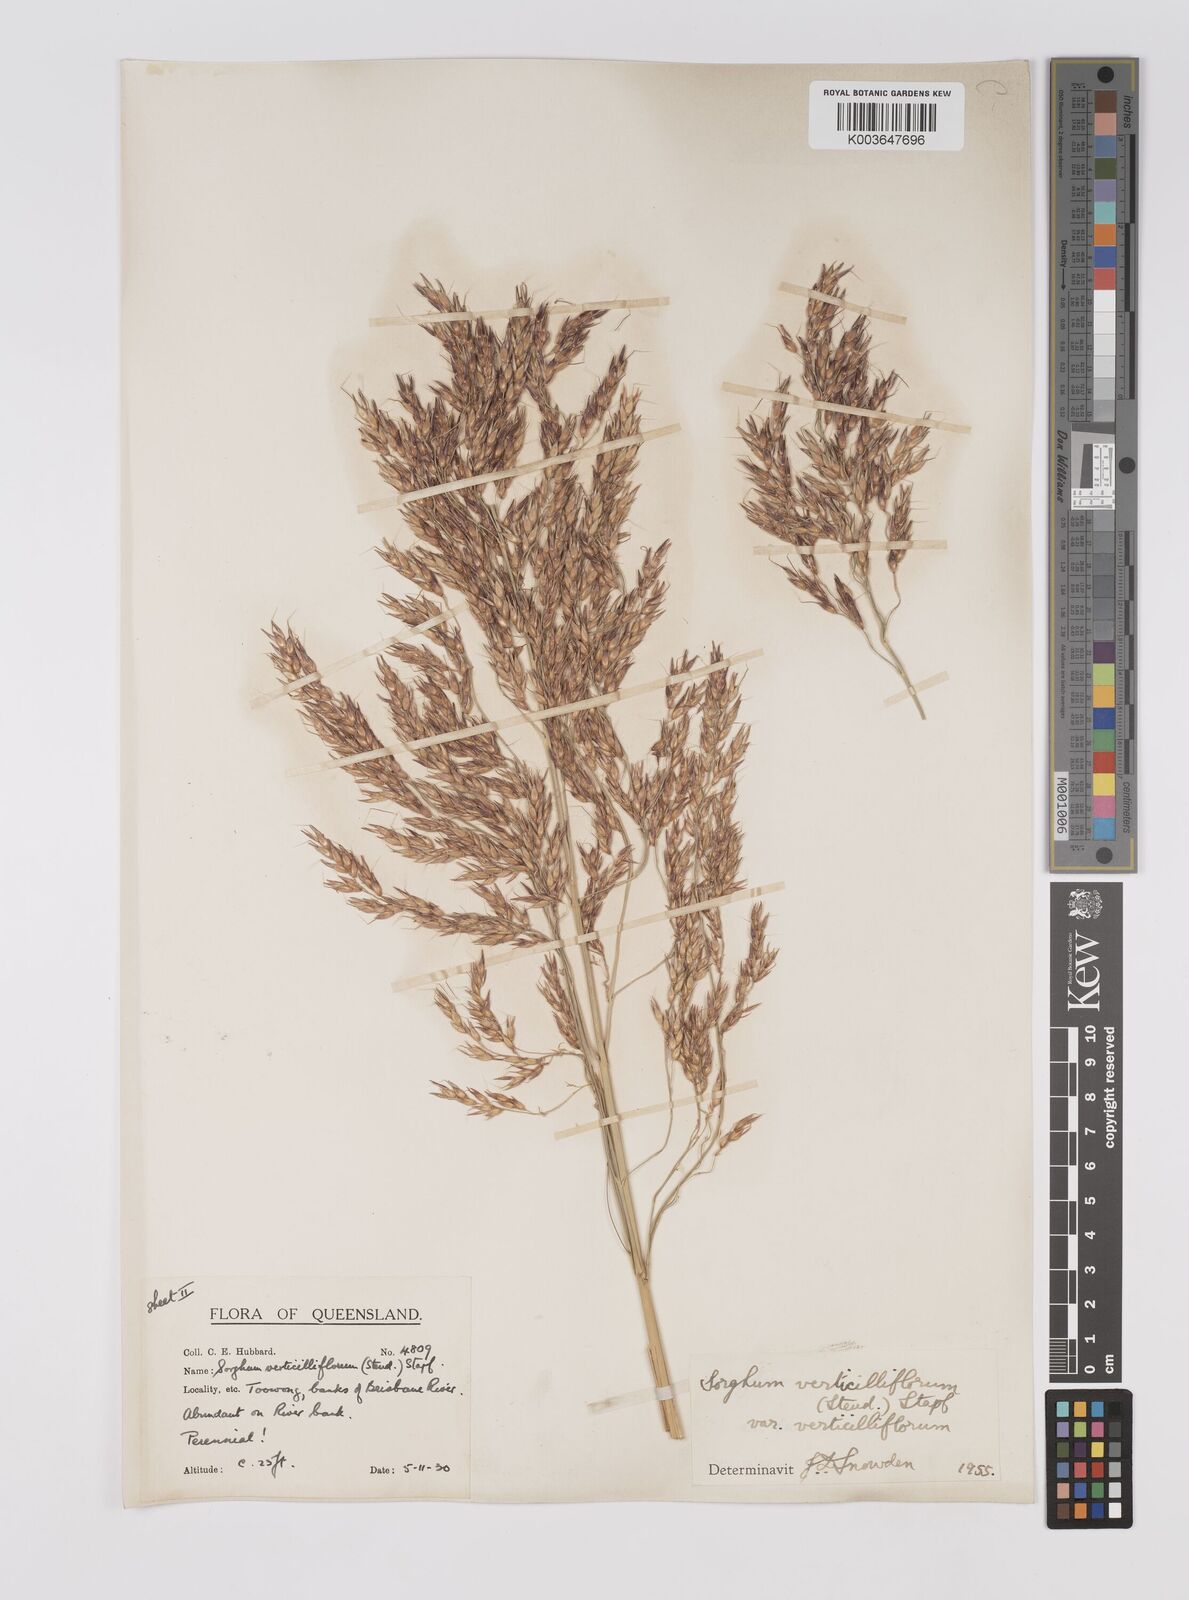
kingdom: Plantae
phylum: Tracheophyta
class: Liliopsida
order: Poales
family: Poaceae
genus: Sorghum
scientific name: Sorghum arundinaceum
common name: Sorghum
